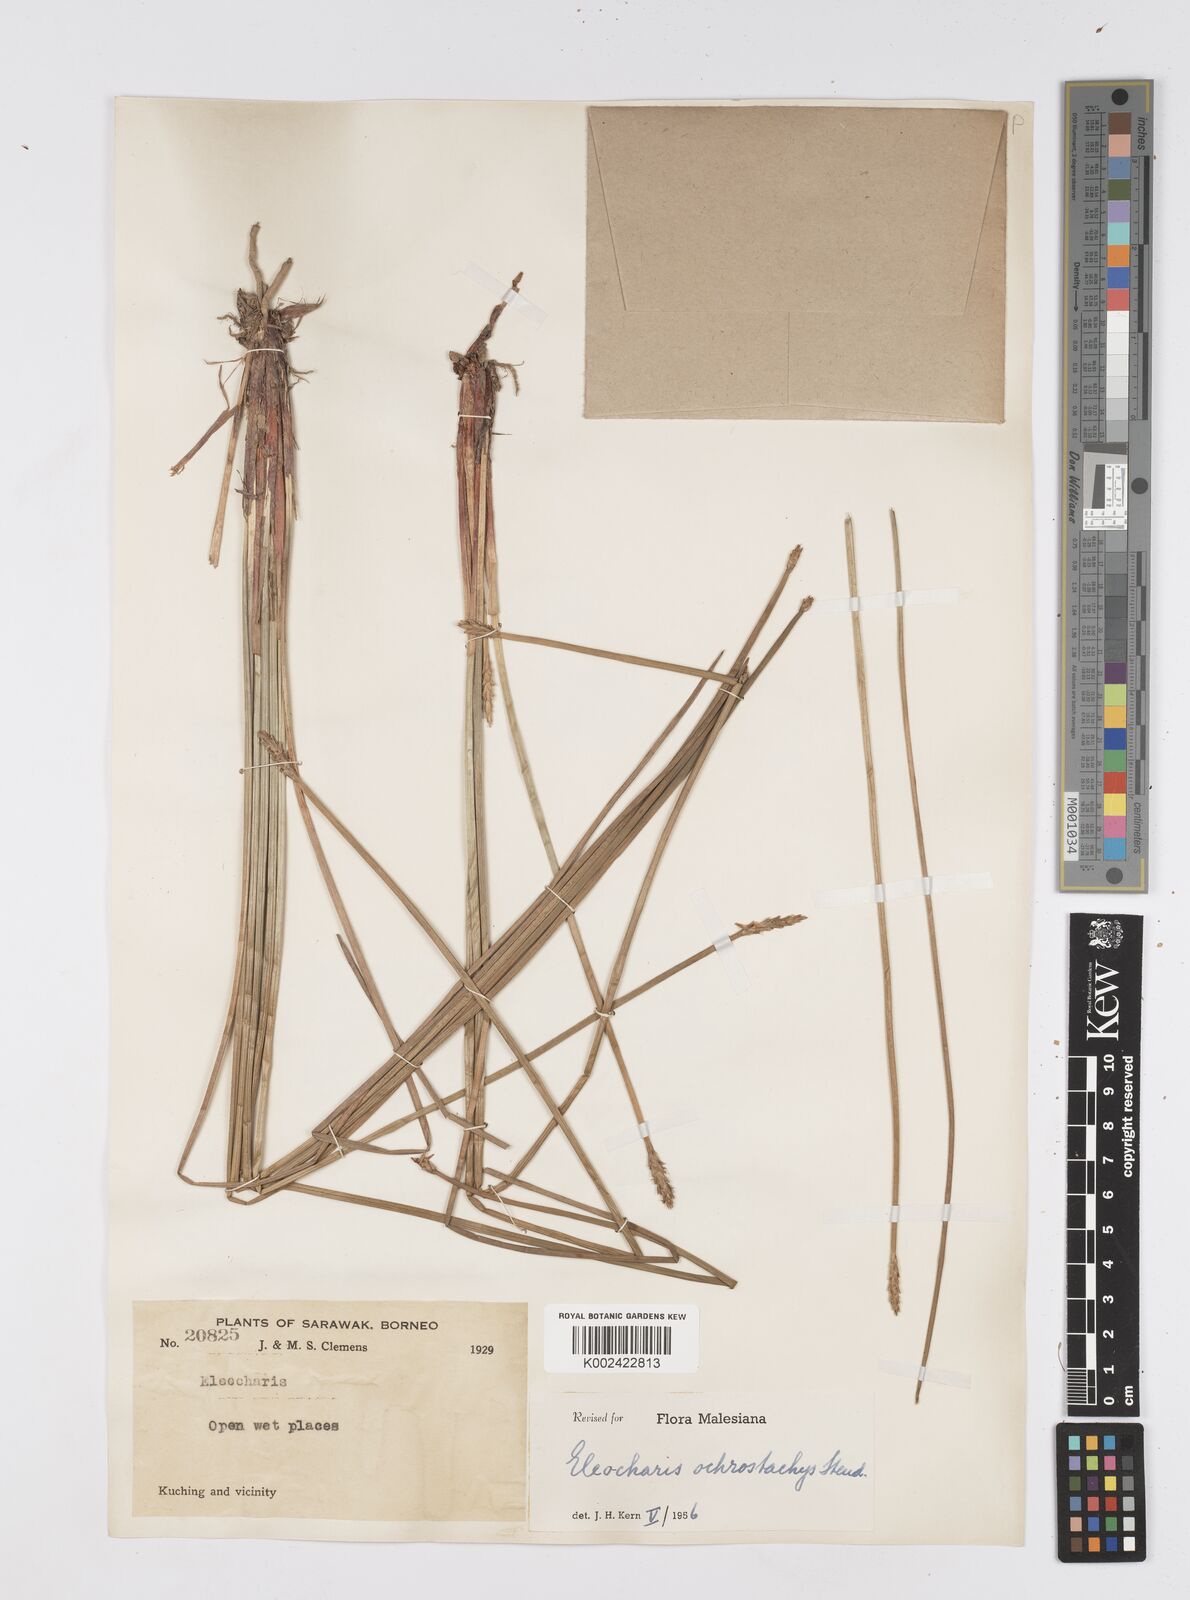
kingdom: Plantae
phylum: Tracheophyta
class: Liliopsida
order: Poales
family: Cyperaceae
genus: Eleocharis
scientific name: Eleocharis ochrostachys
